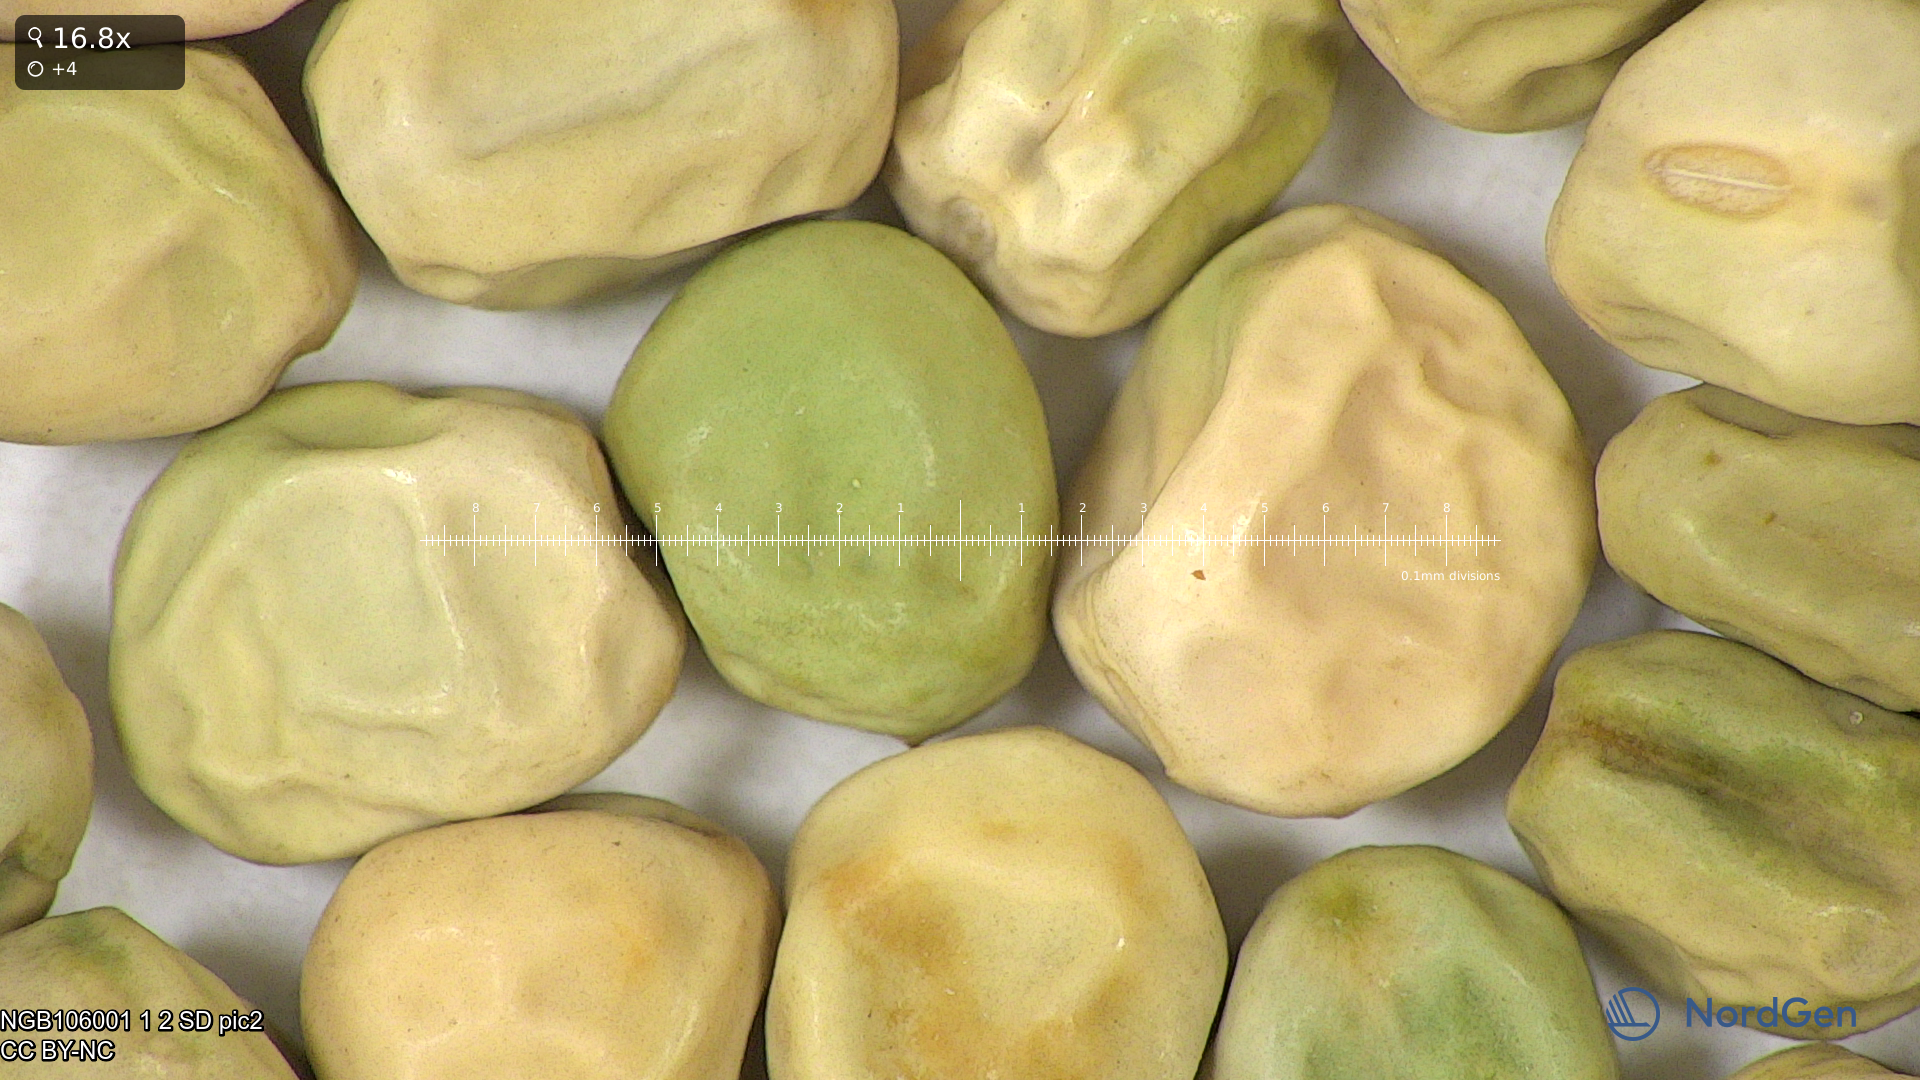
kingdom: Plantae
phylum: Tracheophyta
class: Magnoliopsida
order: Fabales
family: Fabaceae
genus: Lathyrus
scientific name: Lathyrus oleraceus
